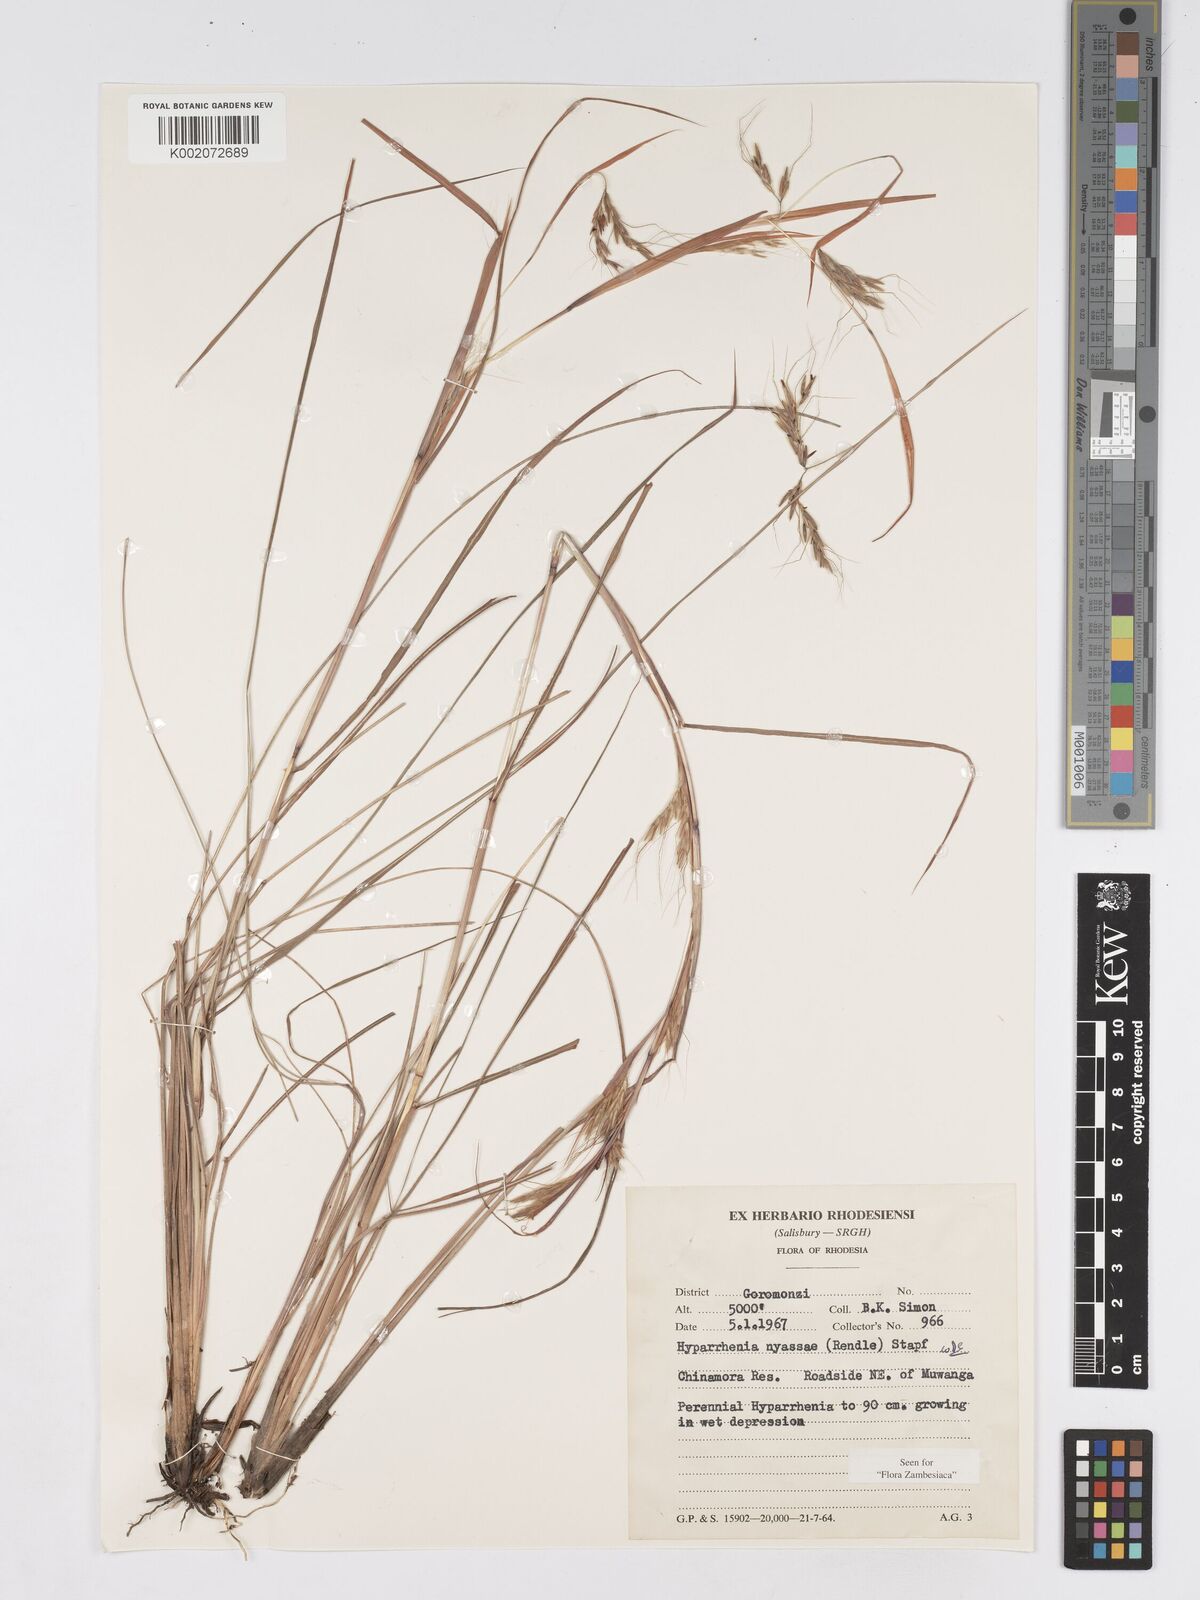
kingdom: Plantae
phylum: Tracheophyta
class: Liliopsida
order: Poales
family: Poaceae
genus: Hyparrhenia
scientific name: Hyparrhenia nyassae
